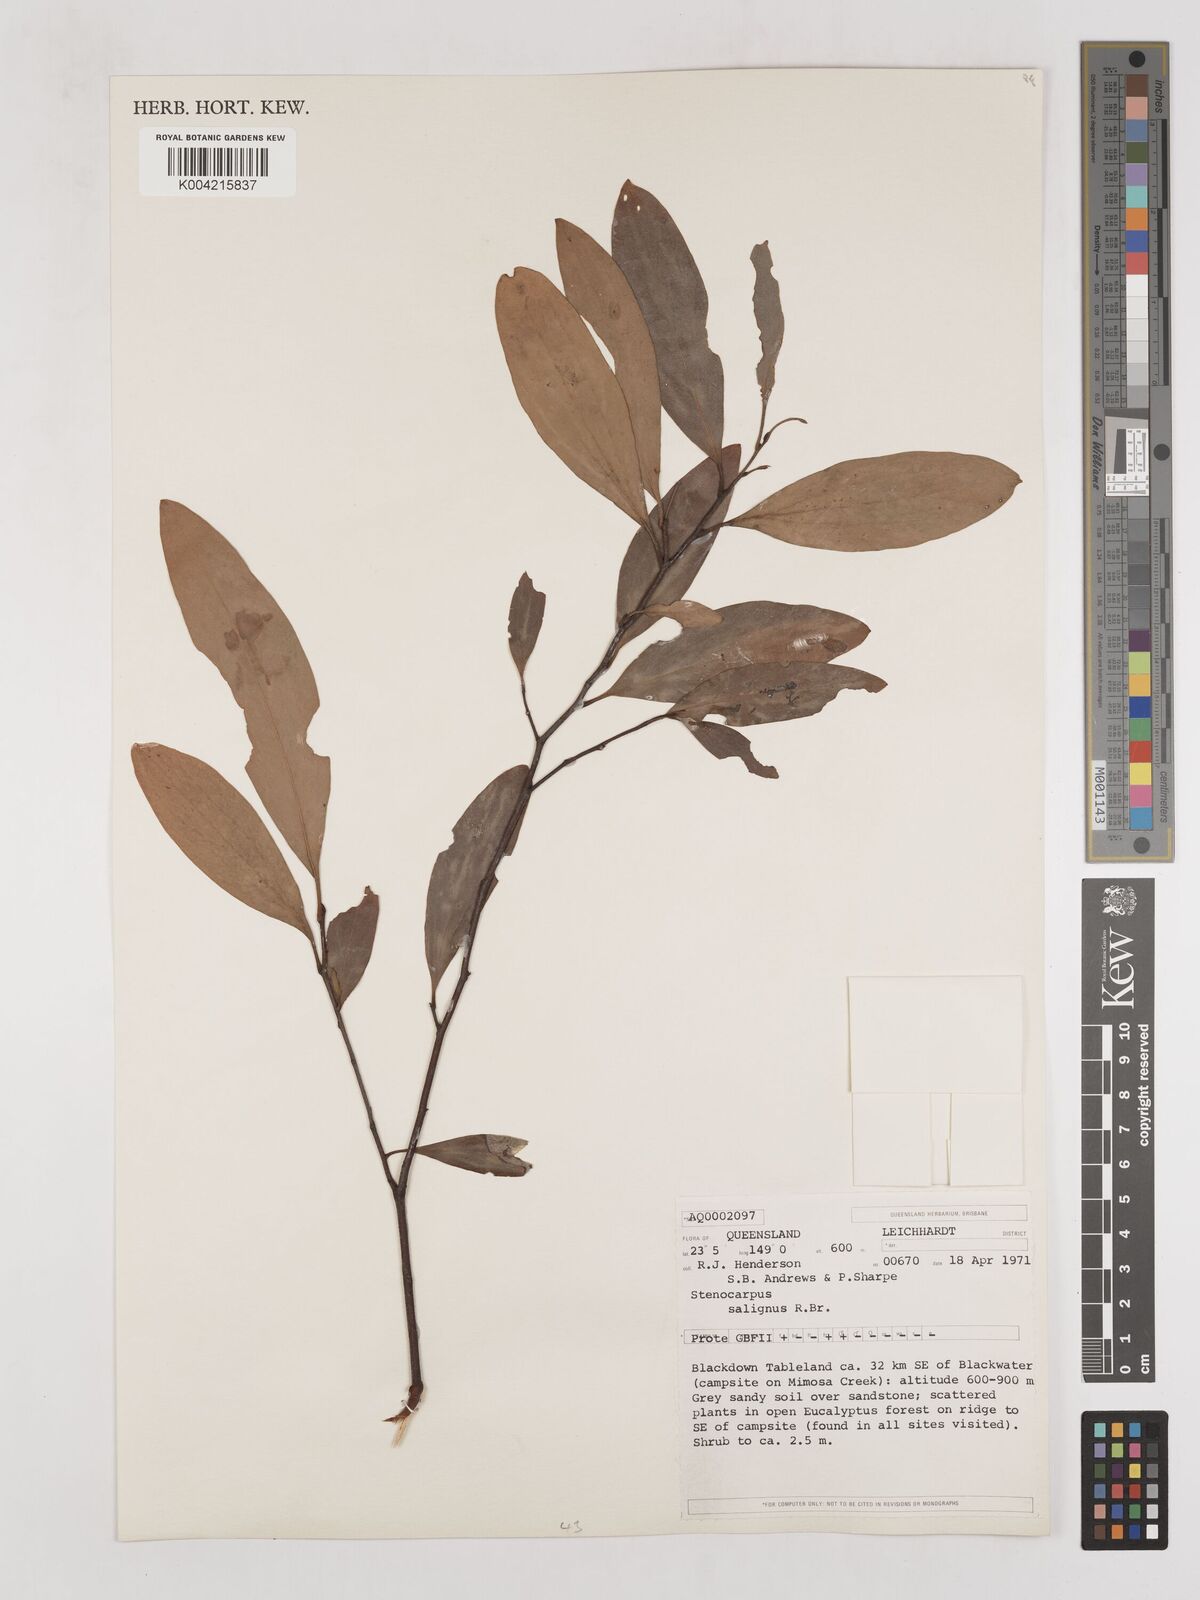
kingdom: Plantae
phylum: Tracheophyta
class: Magnoliopsida
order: Proteales
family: Proteaceae
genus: Stenocarpus
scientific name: Stenocarpus salignus
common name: Red silky-oak
